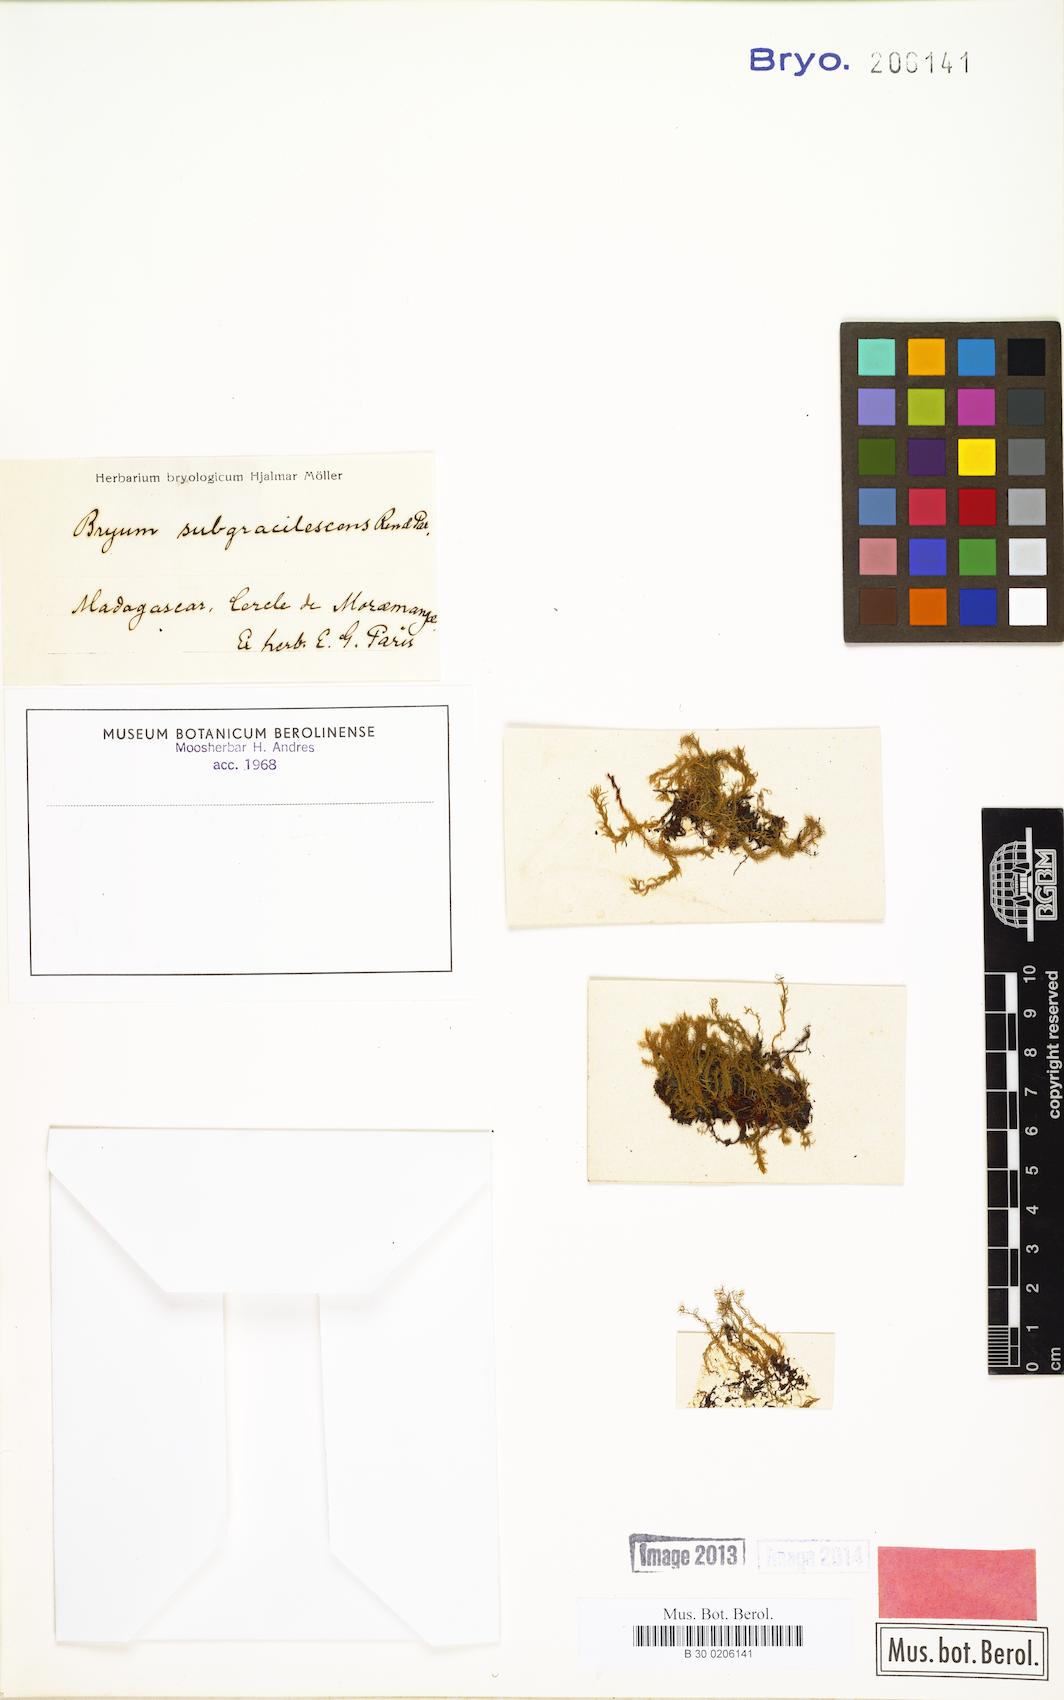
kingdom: Plantae
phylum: Bryophyta
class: Bryopsida
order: Bryales
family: Bryaceae
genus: Rosulabryum
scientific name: Rosulabryum erythrocaulon
